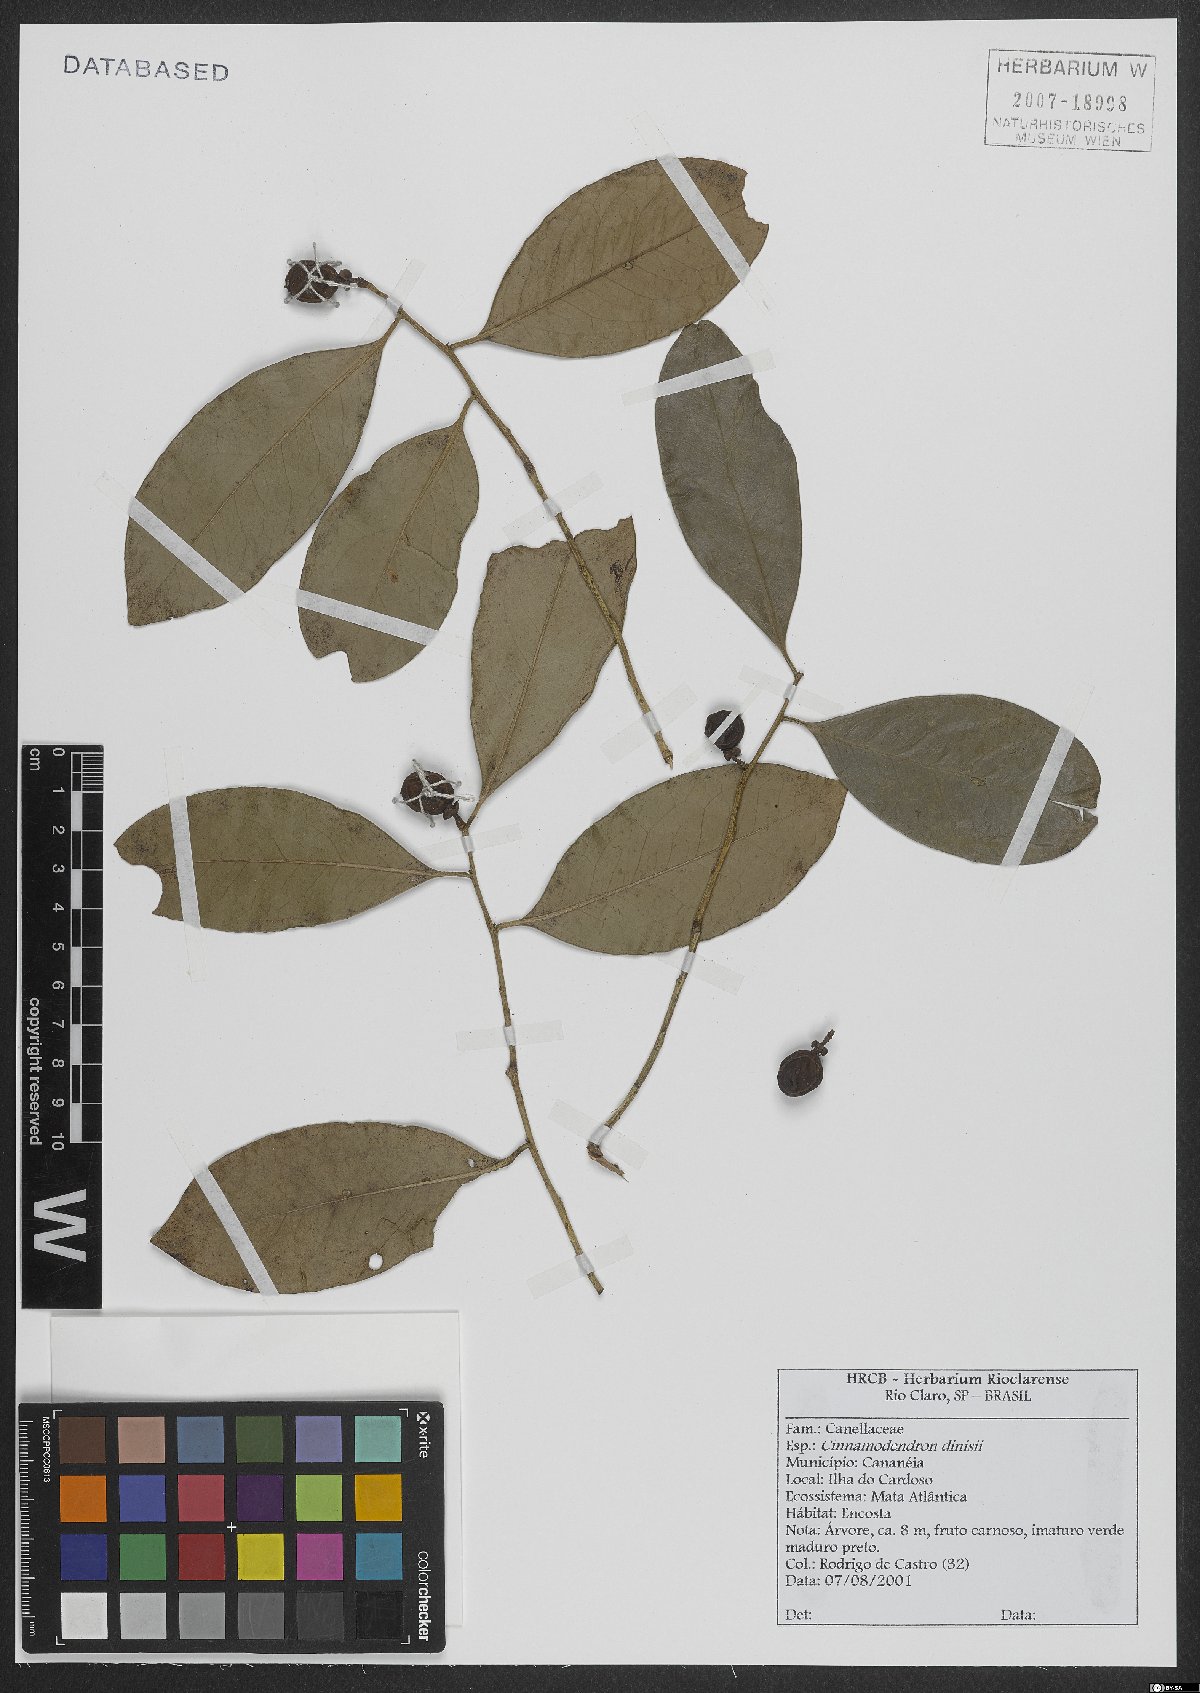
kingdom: Plantae
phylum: Tracheophyta
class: Magnoliopsida
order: Canellales
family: Canellaceae
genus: Cinnamodendron
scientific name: Cinnamodendron dinisii
